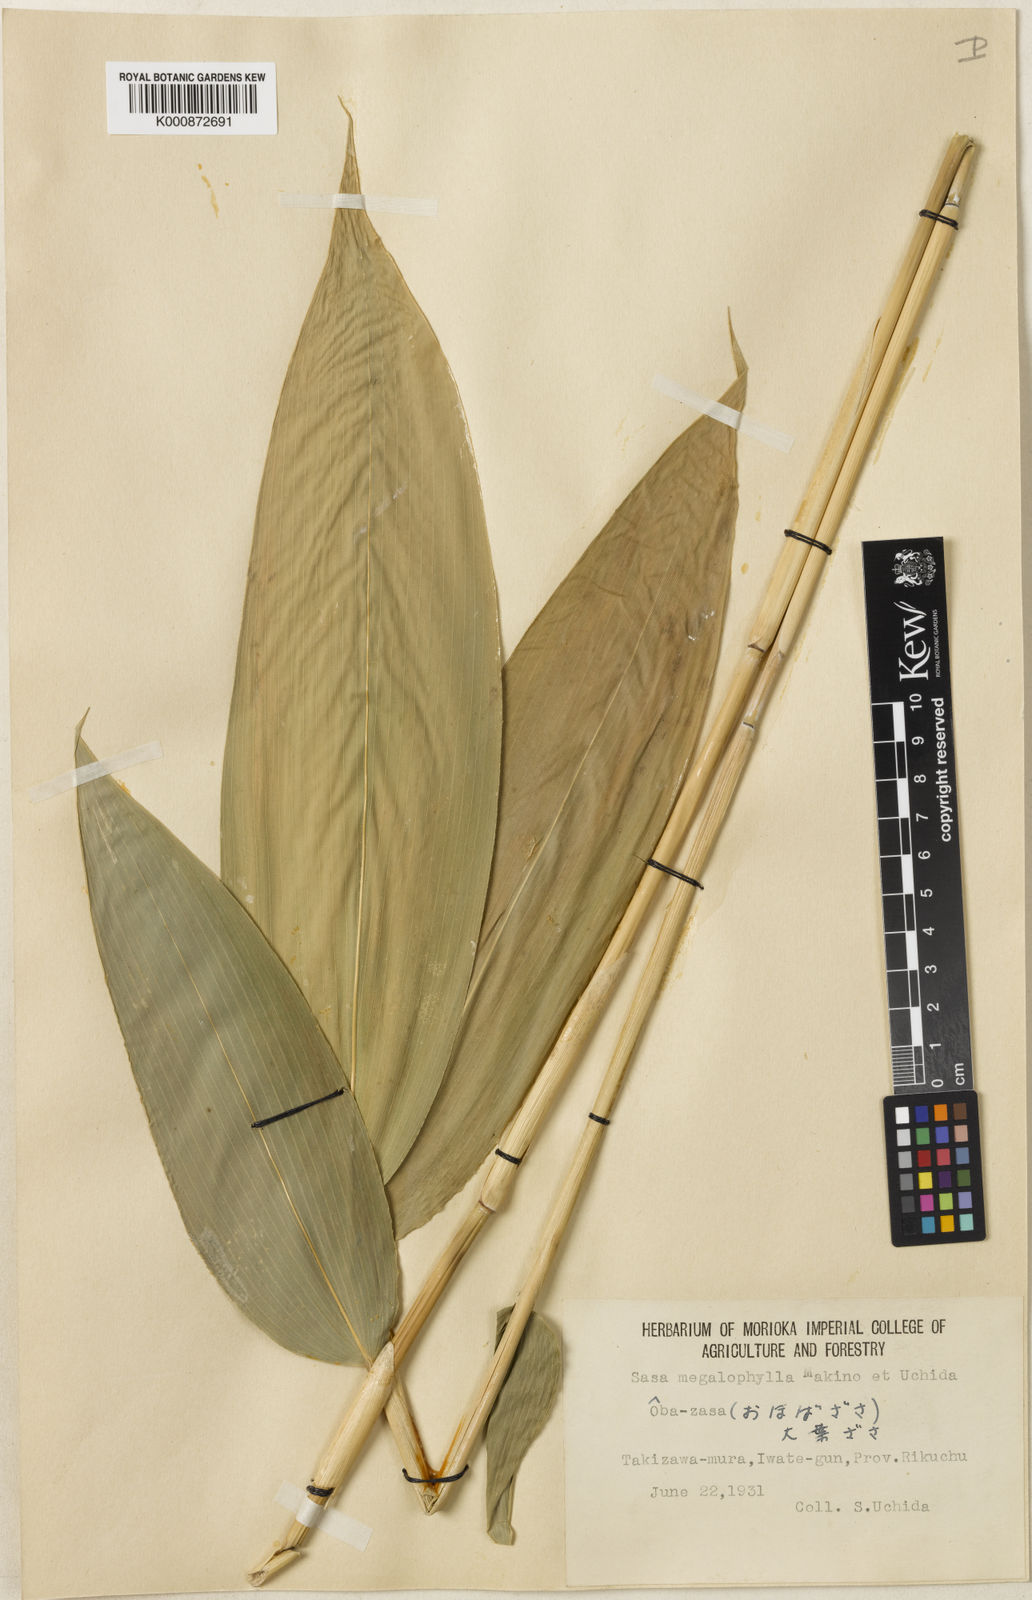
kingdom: Plantae
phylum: Tracheophyta
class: Liliopsida
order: Poales
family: Poaceae
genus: Sasa
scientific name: Sasa megalophylla
